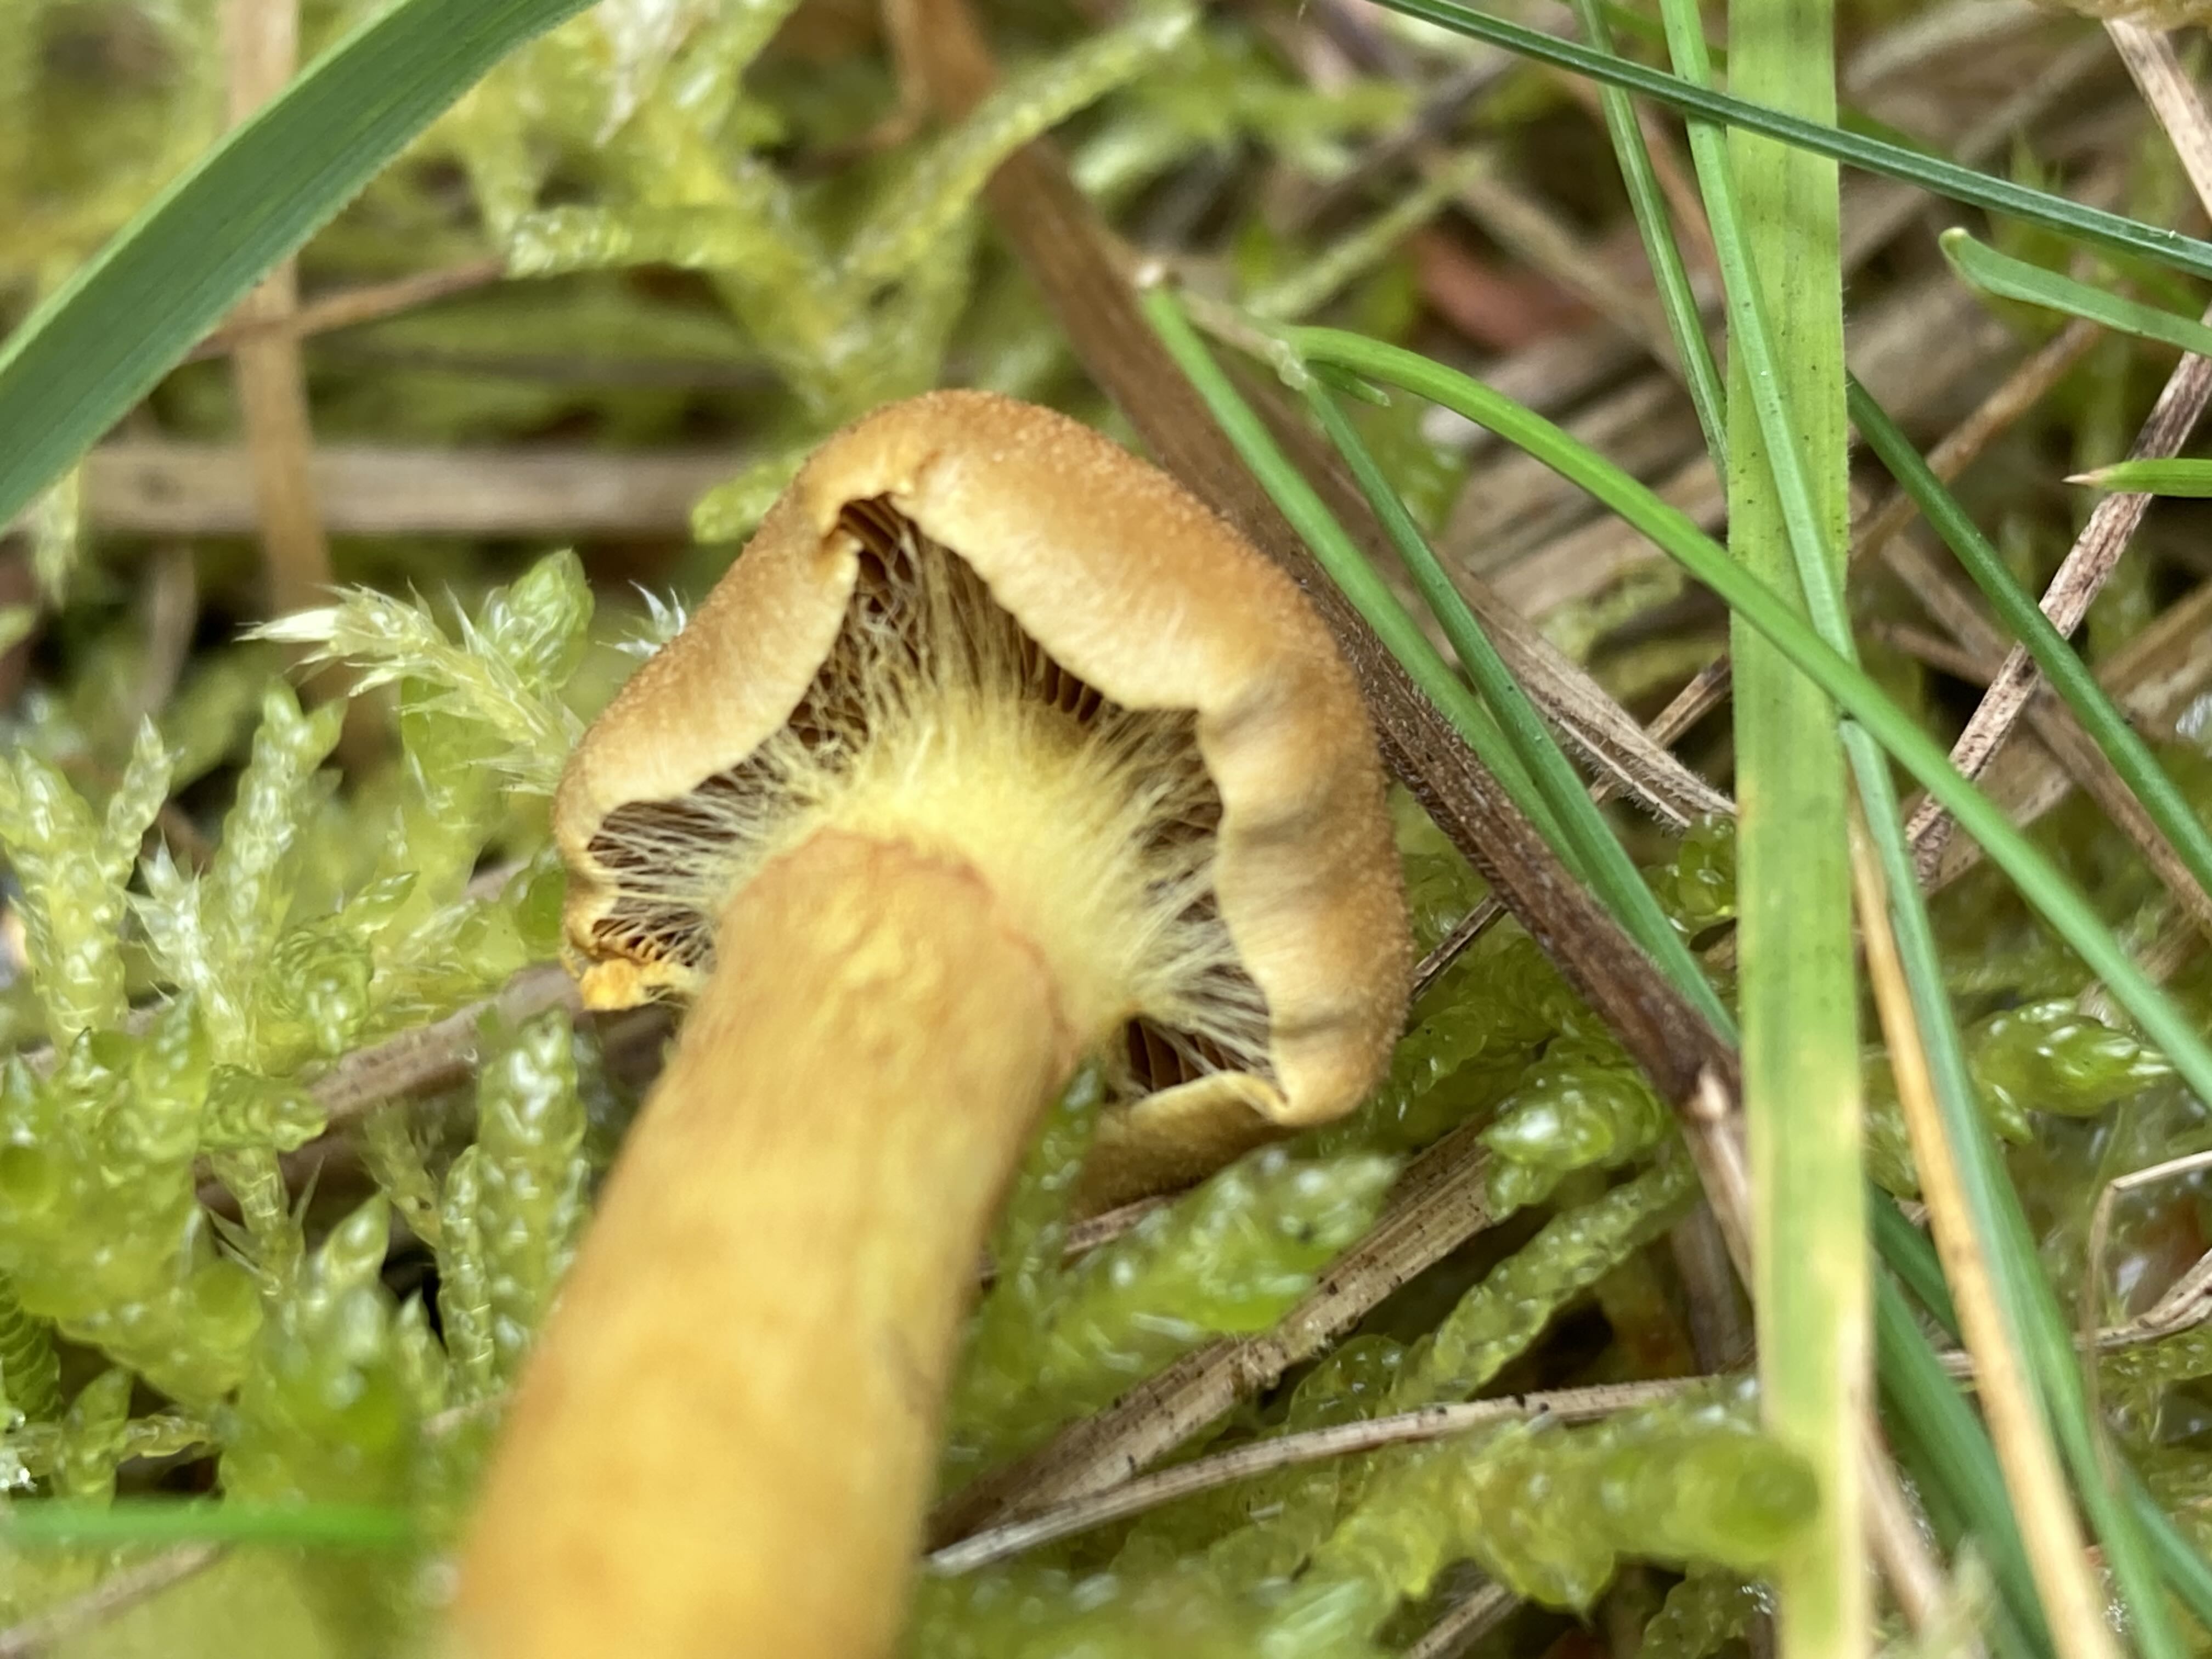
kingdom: Fungi
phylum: Basidiomycota
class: Agaricomycetes
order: Agaricales
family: Cortinariaceae
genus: Cortinarius
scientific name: Cortinarius
